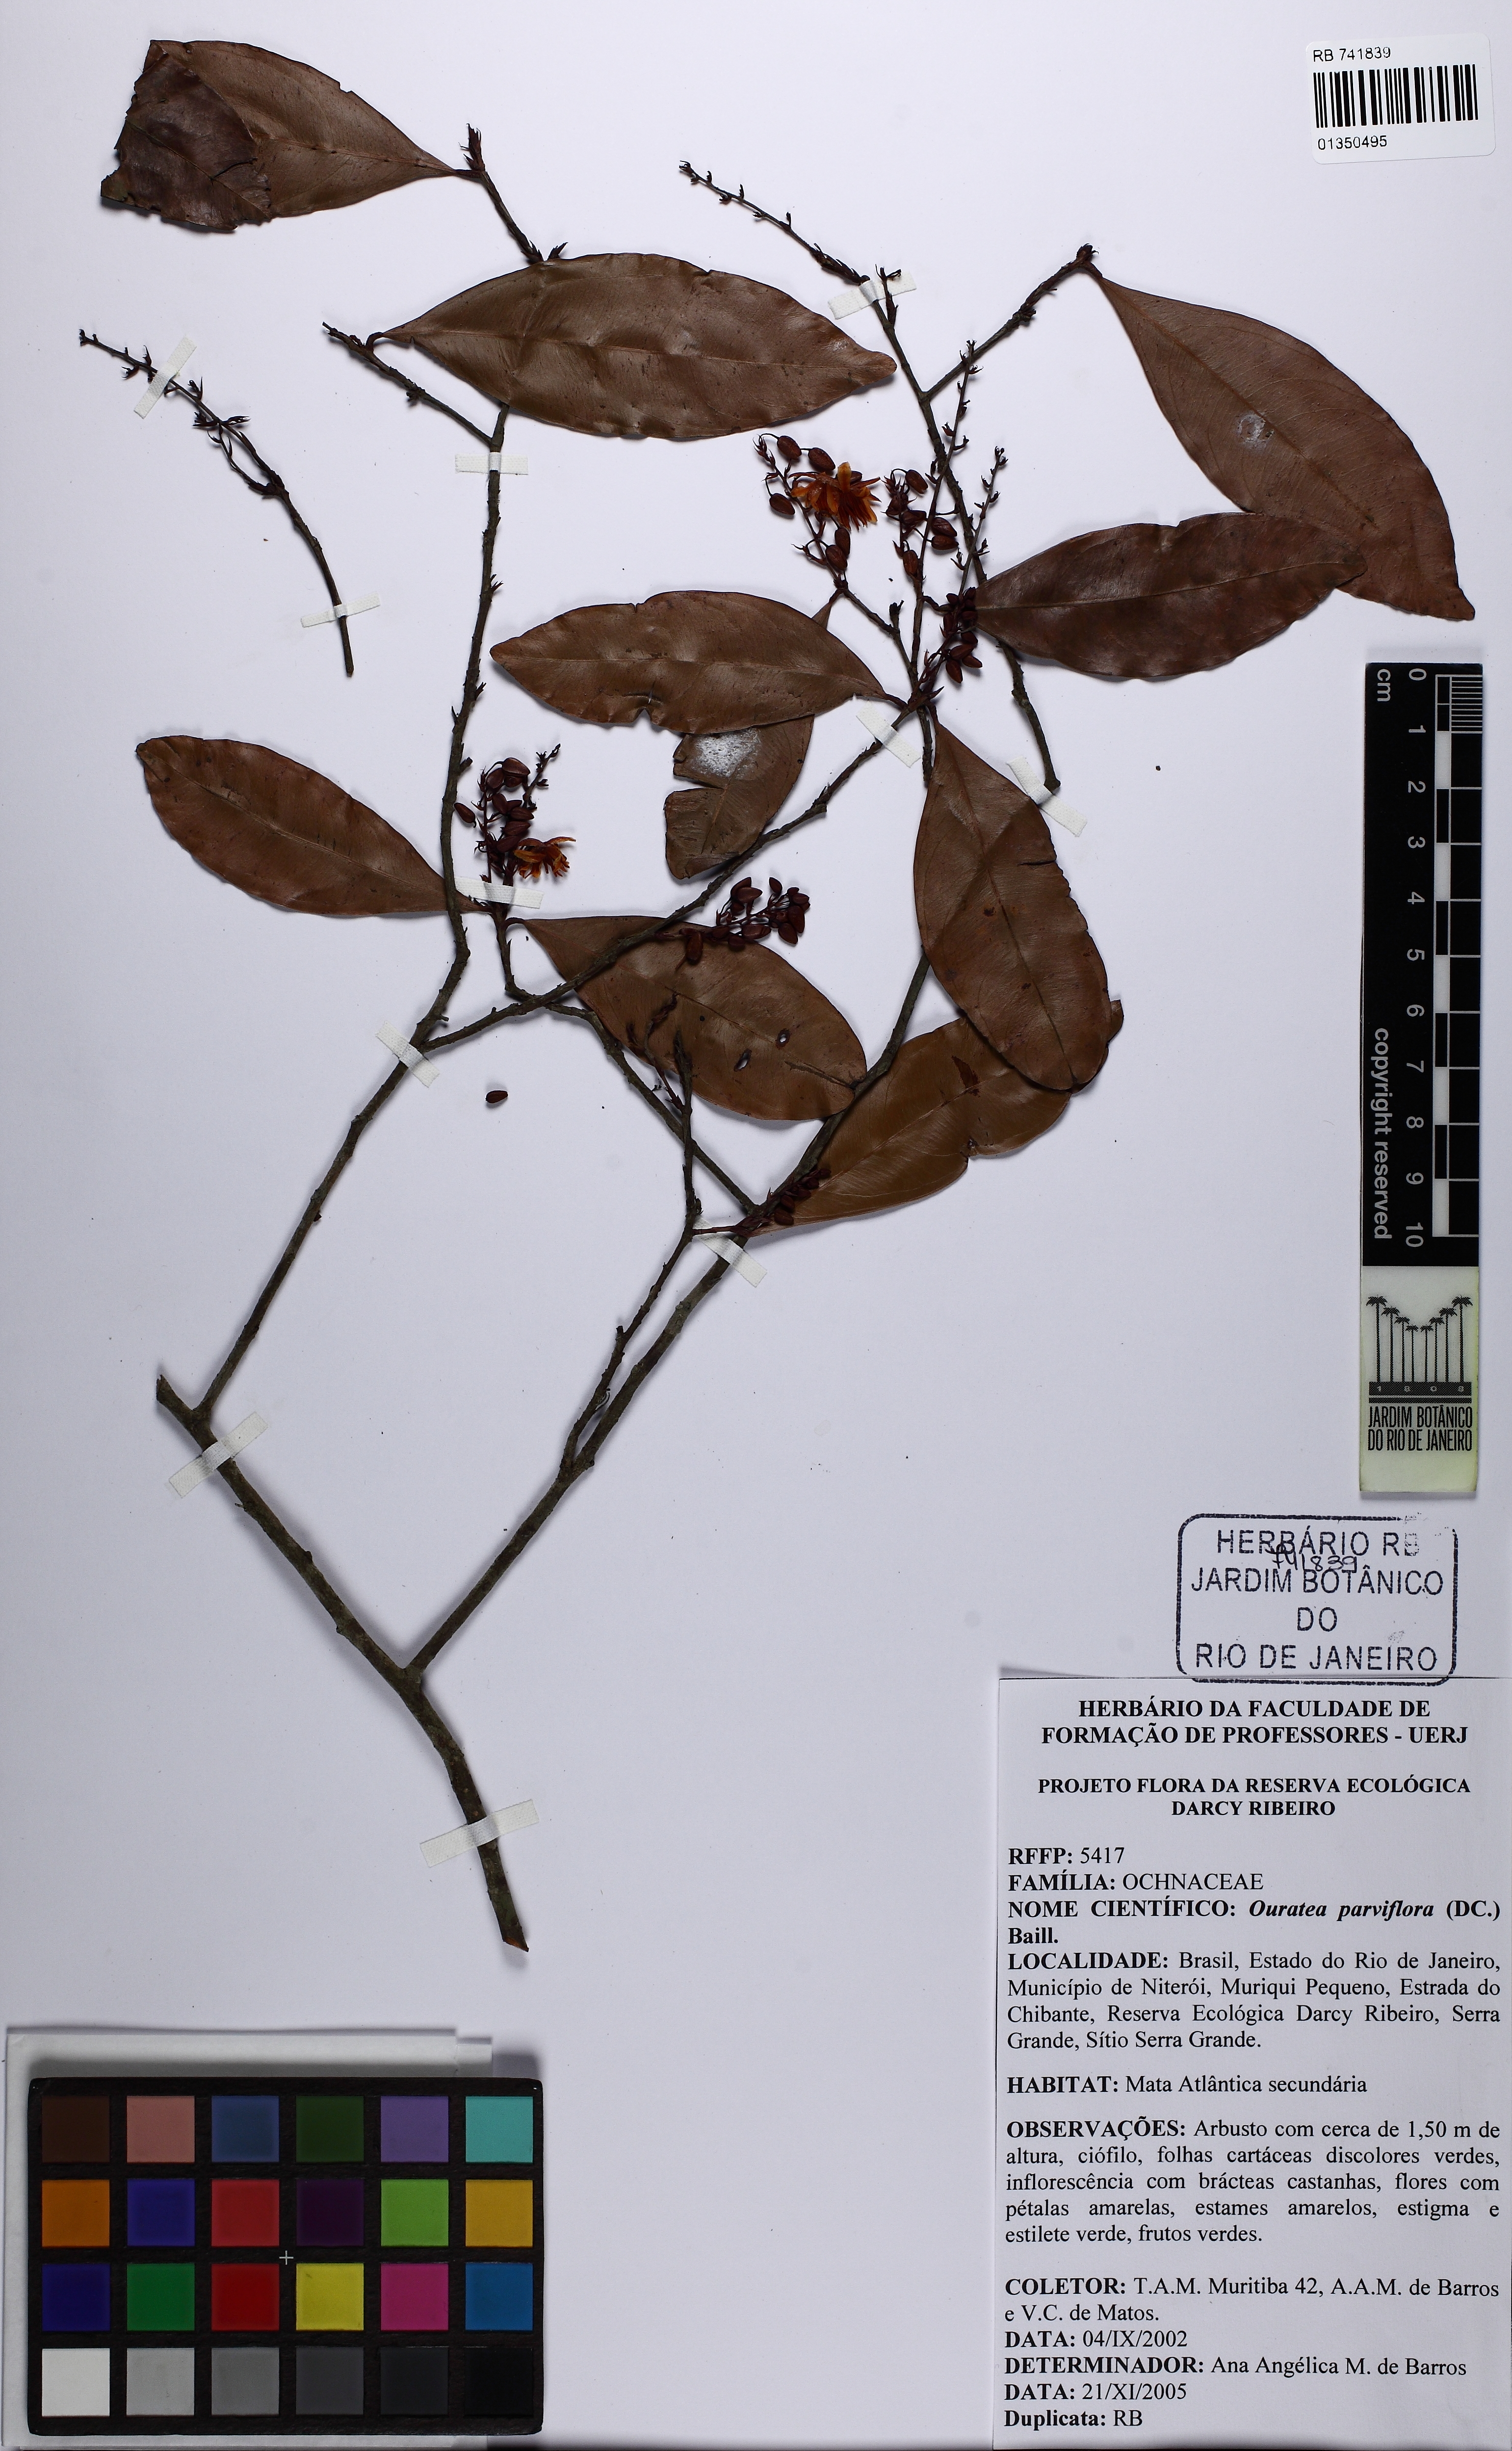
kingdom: Plantae
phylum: Tracheophyta
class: Magnoliopsida
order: Malpighiales
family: Ochnaceae
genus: Ouratea
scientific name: Ouratea parviflora
